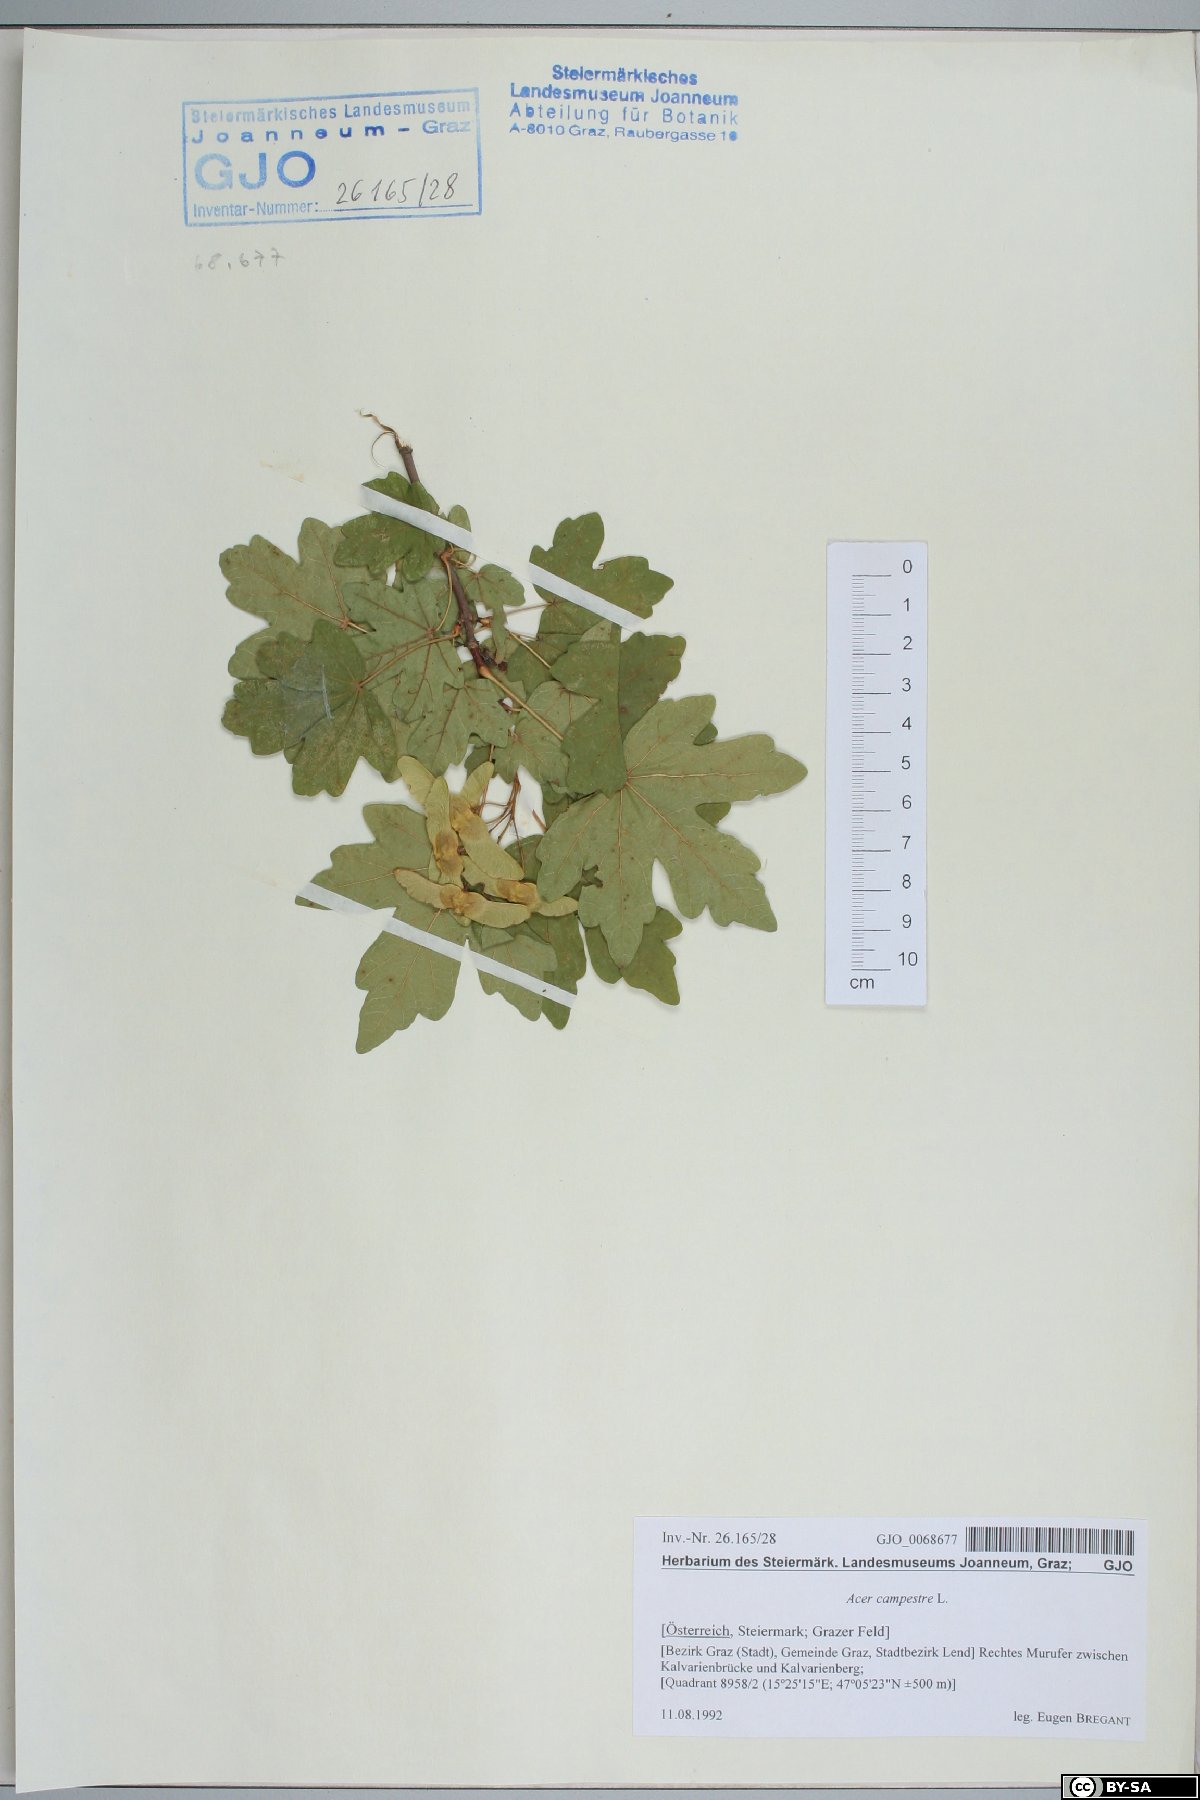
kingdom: Plantae
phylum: Tracheophyta
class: Magnoliopsida
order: Sapindales
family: Sapindaceae
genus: Acer
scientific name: Acer campestre
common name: Field maple
